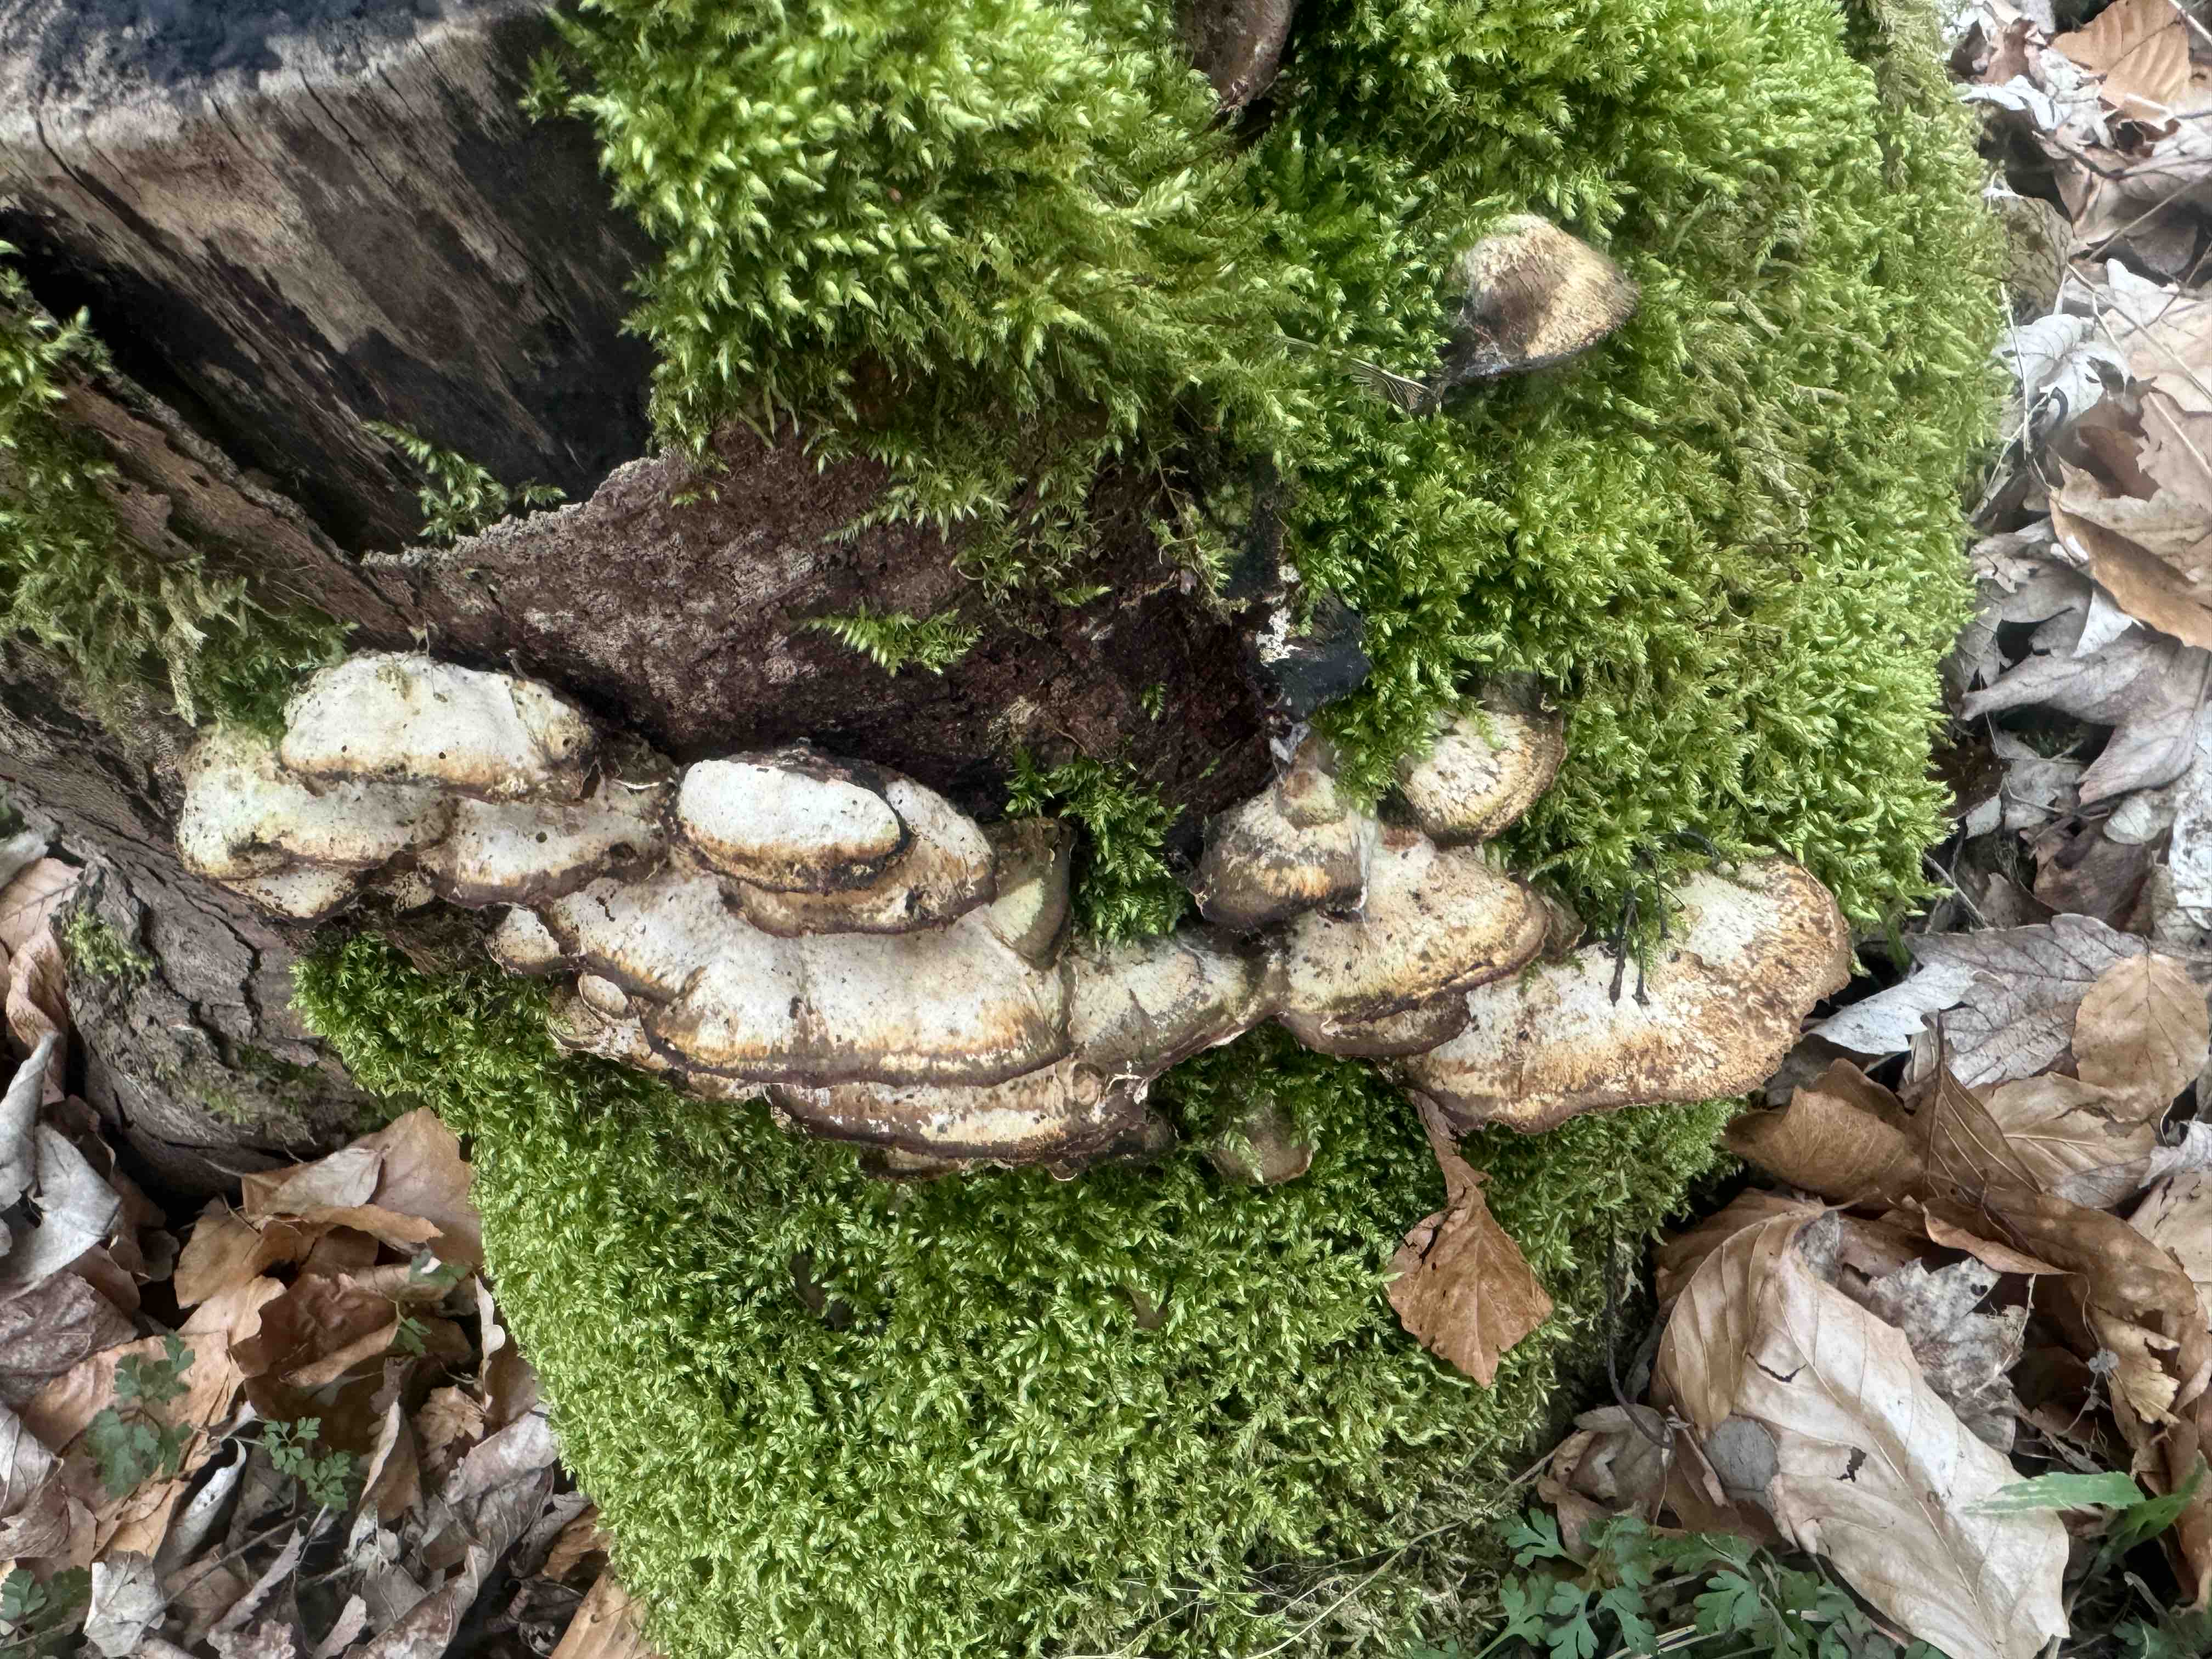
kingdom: Fungi
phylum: Basidiomycota
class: Agaricomycetes
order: Polyporales
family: Phanerochaetaceae
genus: Bjerkandera
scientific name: Bjerkandera fumosa
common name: grågul sodporesvamp
